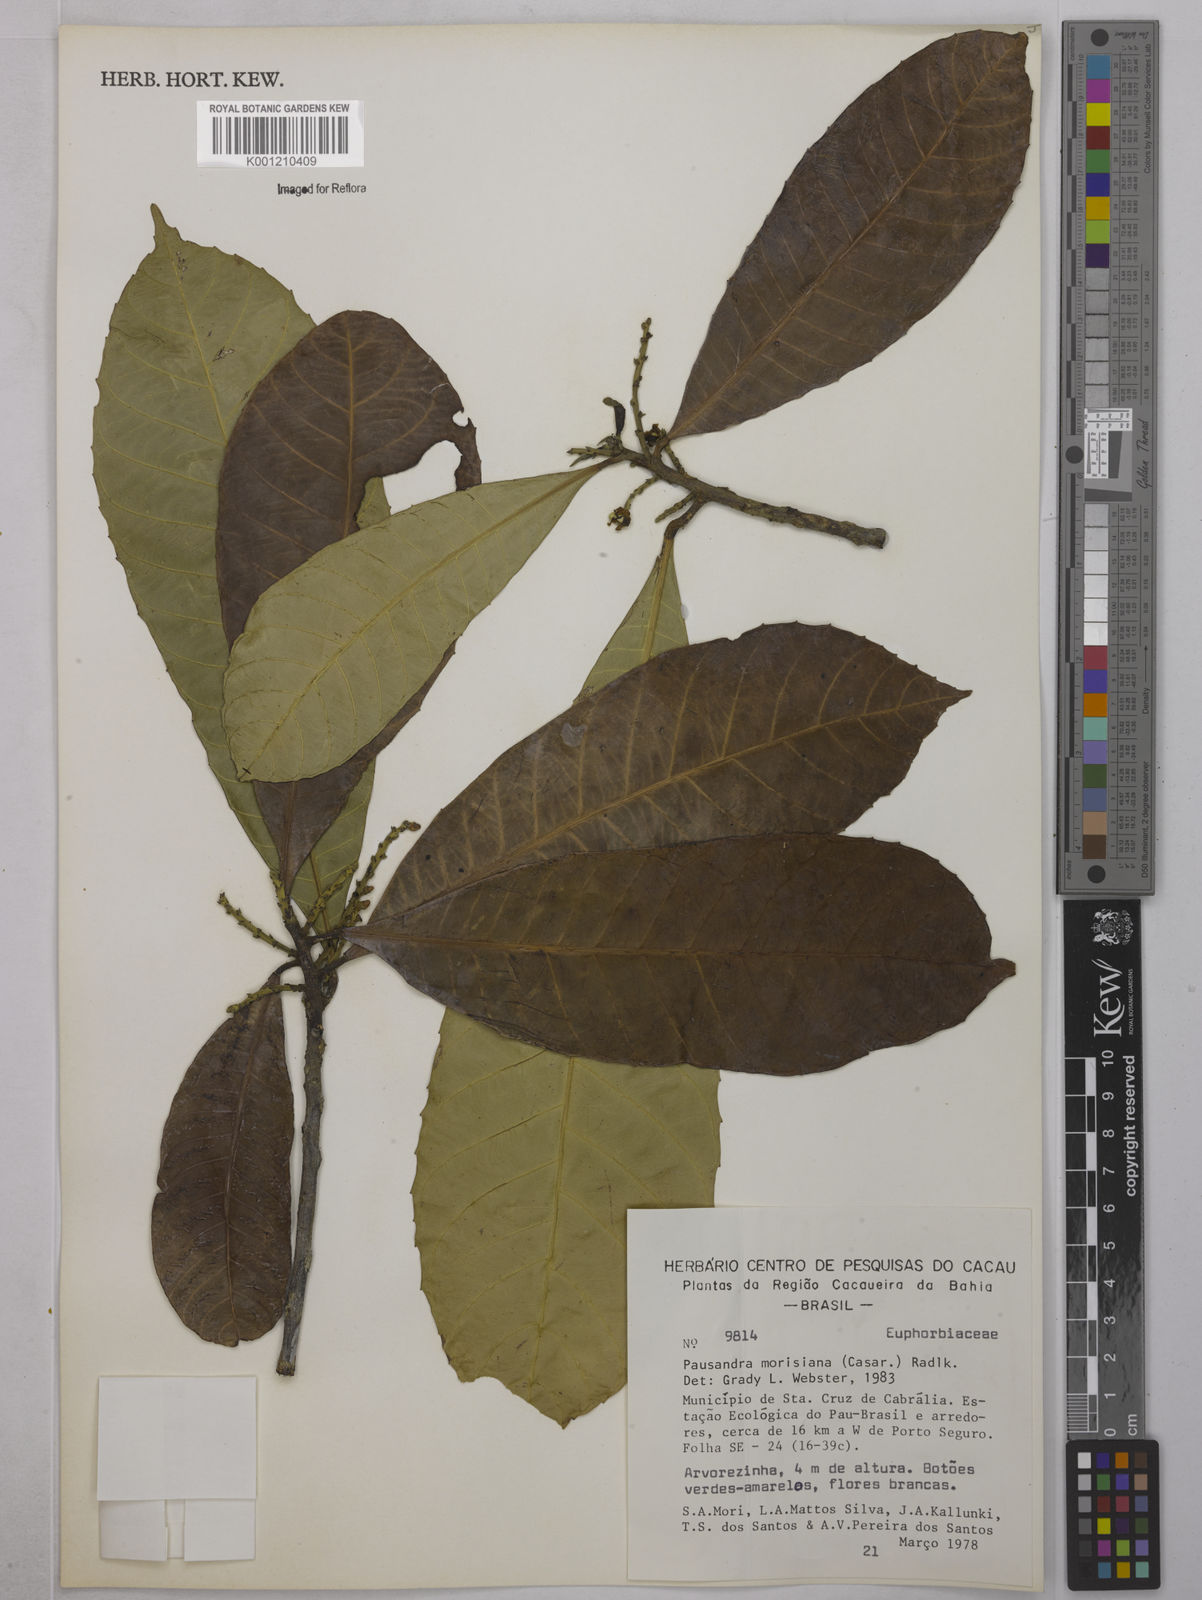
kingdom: Plantae
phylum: Tracheophyta
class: Magnoliopsida
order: Malpighiales
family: Euphorbiaceae
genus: Pausandra
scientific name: Pausandra morisiana
